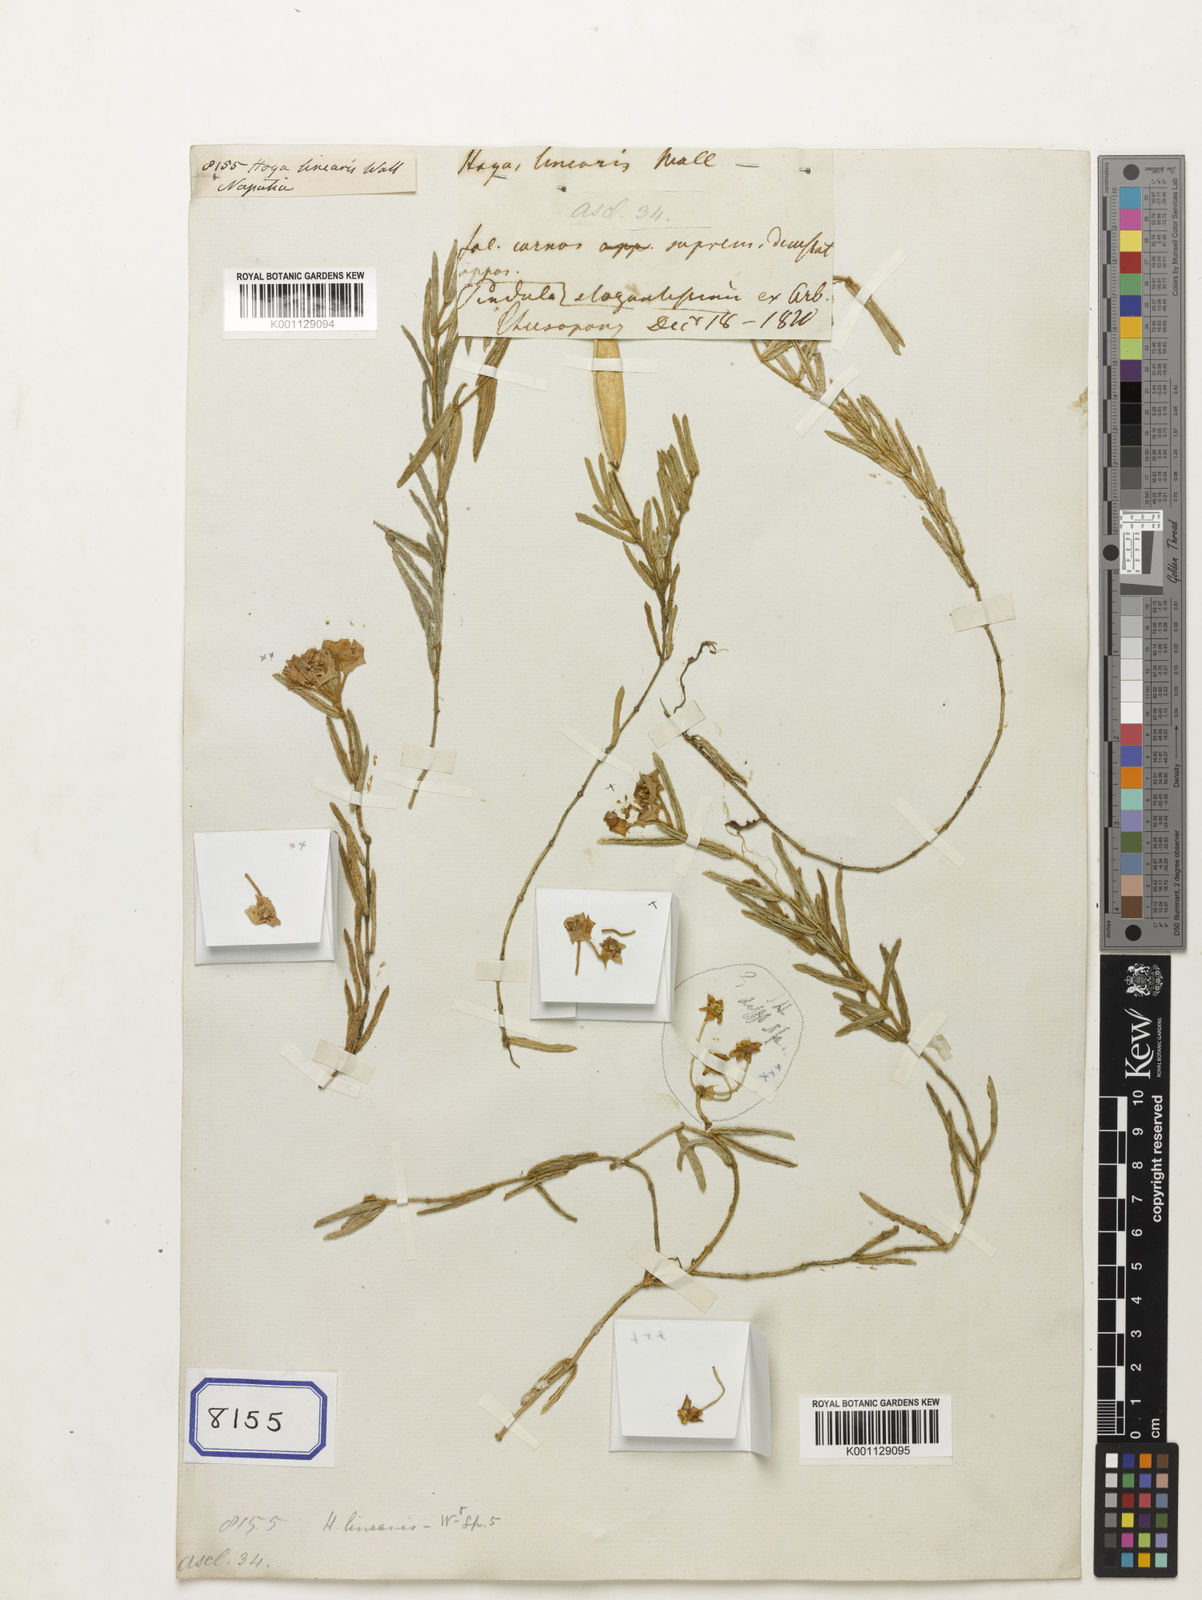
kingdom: Plantae
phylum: Tracheophyta
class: Magnoliopsida
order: Gentianales
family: Apocynaceae
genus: Hoya
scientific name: Hoya
